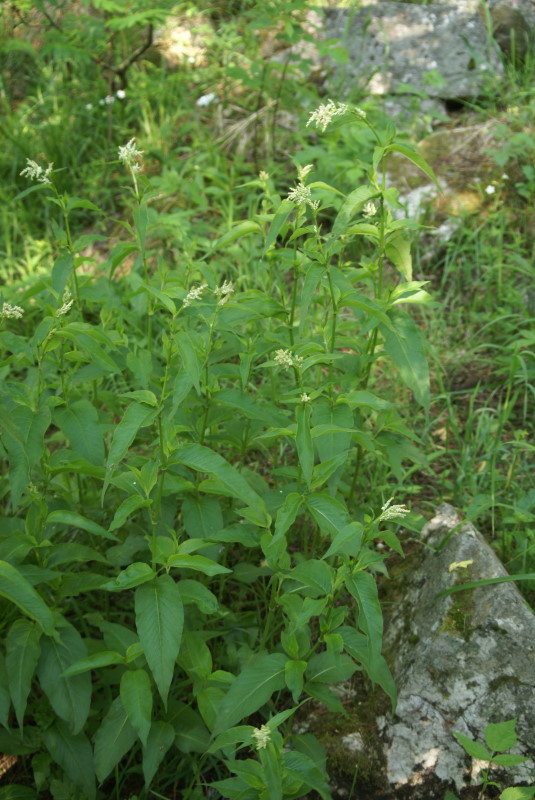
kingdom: Plantae
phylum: Tracheophyta
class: Magnoliopsida
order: Caryophyllales
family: Polygonaceae
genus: Koenigia
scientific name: Koenigia alpina
